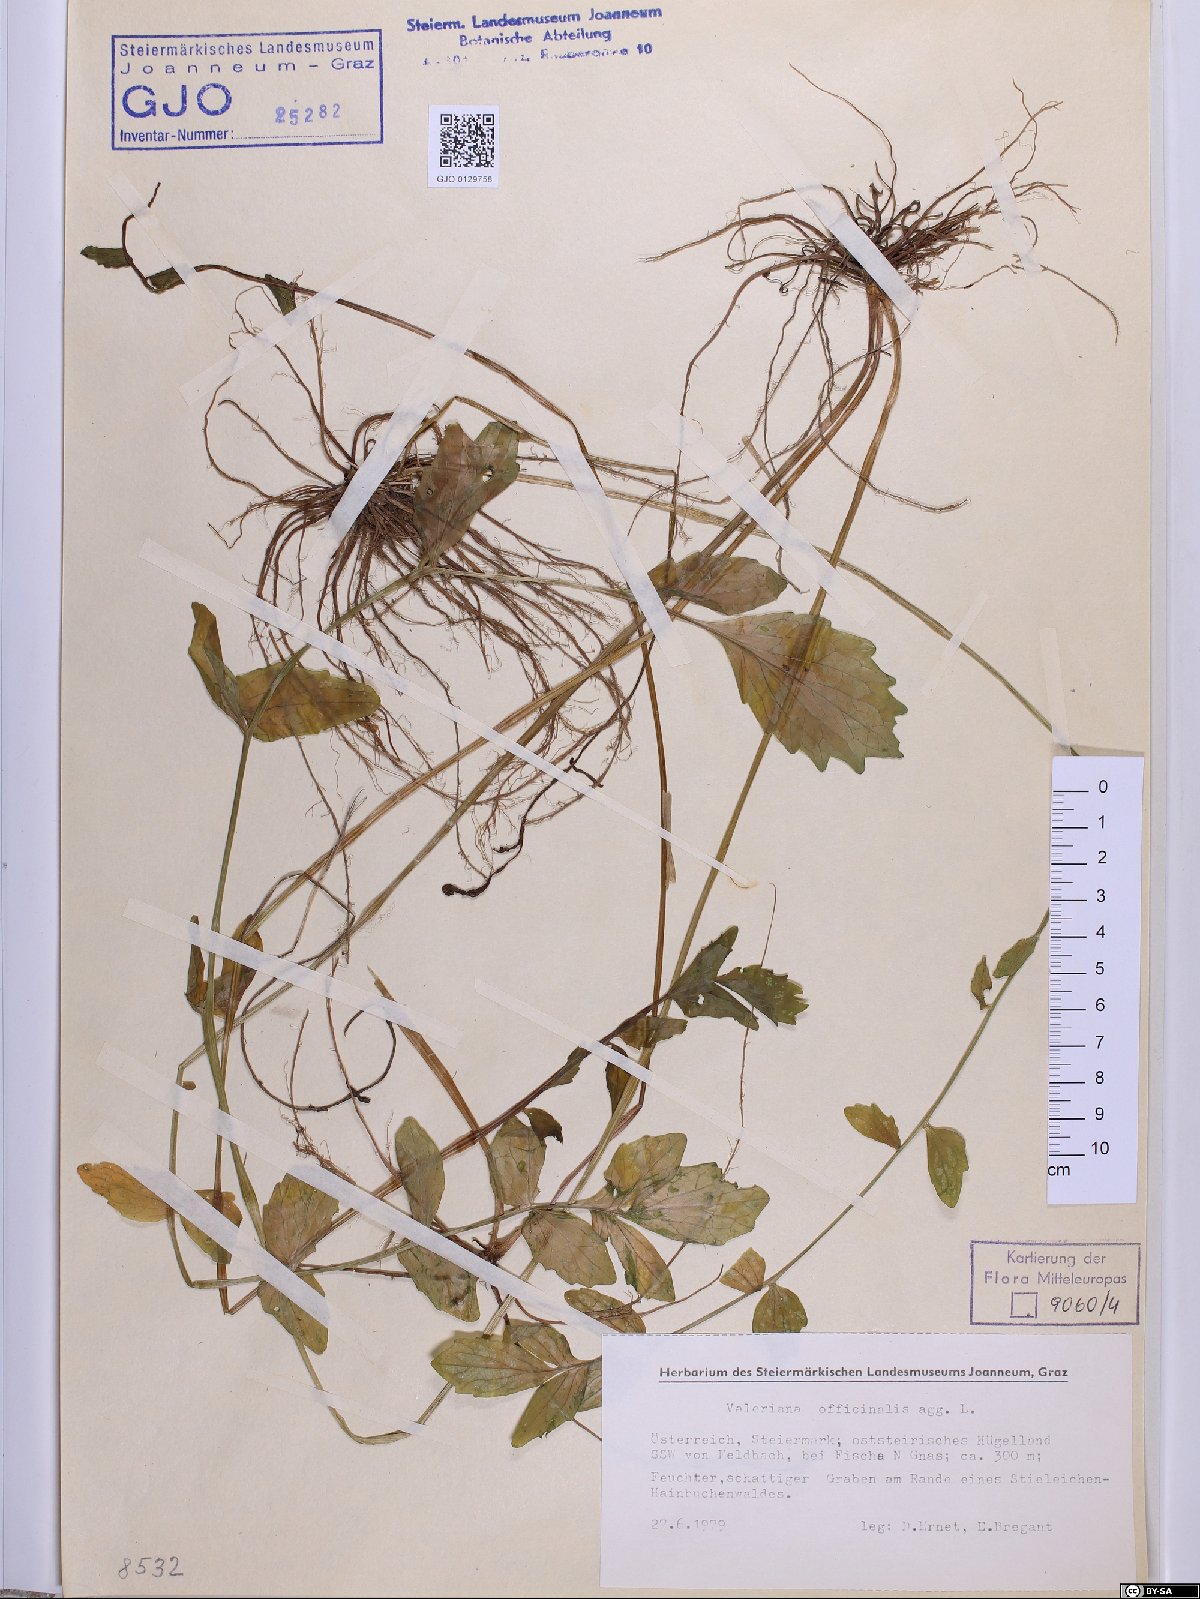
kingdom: Plantae
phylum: Tracheophyta
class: Magnoliopsida
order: Dipsacales
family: Caprifoliaceae
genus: Valeriana
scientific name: Valeriana officinalis
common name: Common valerian
